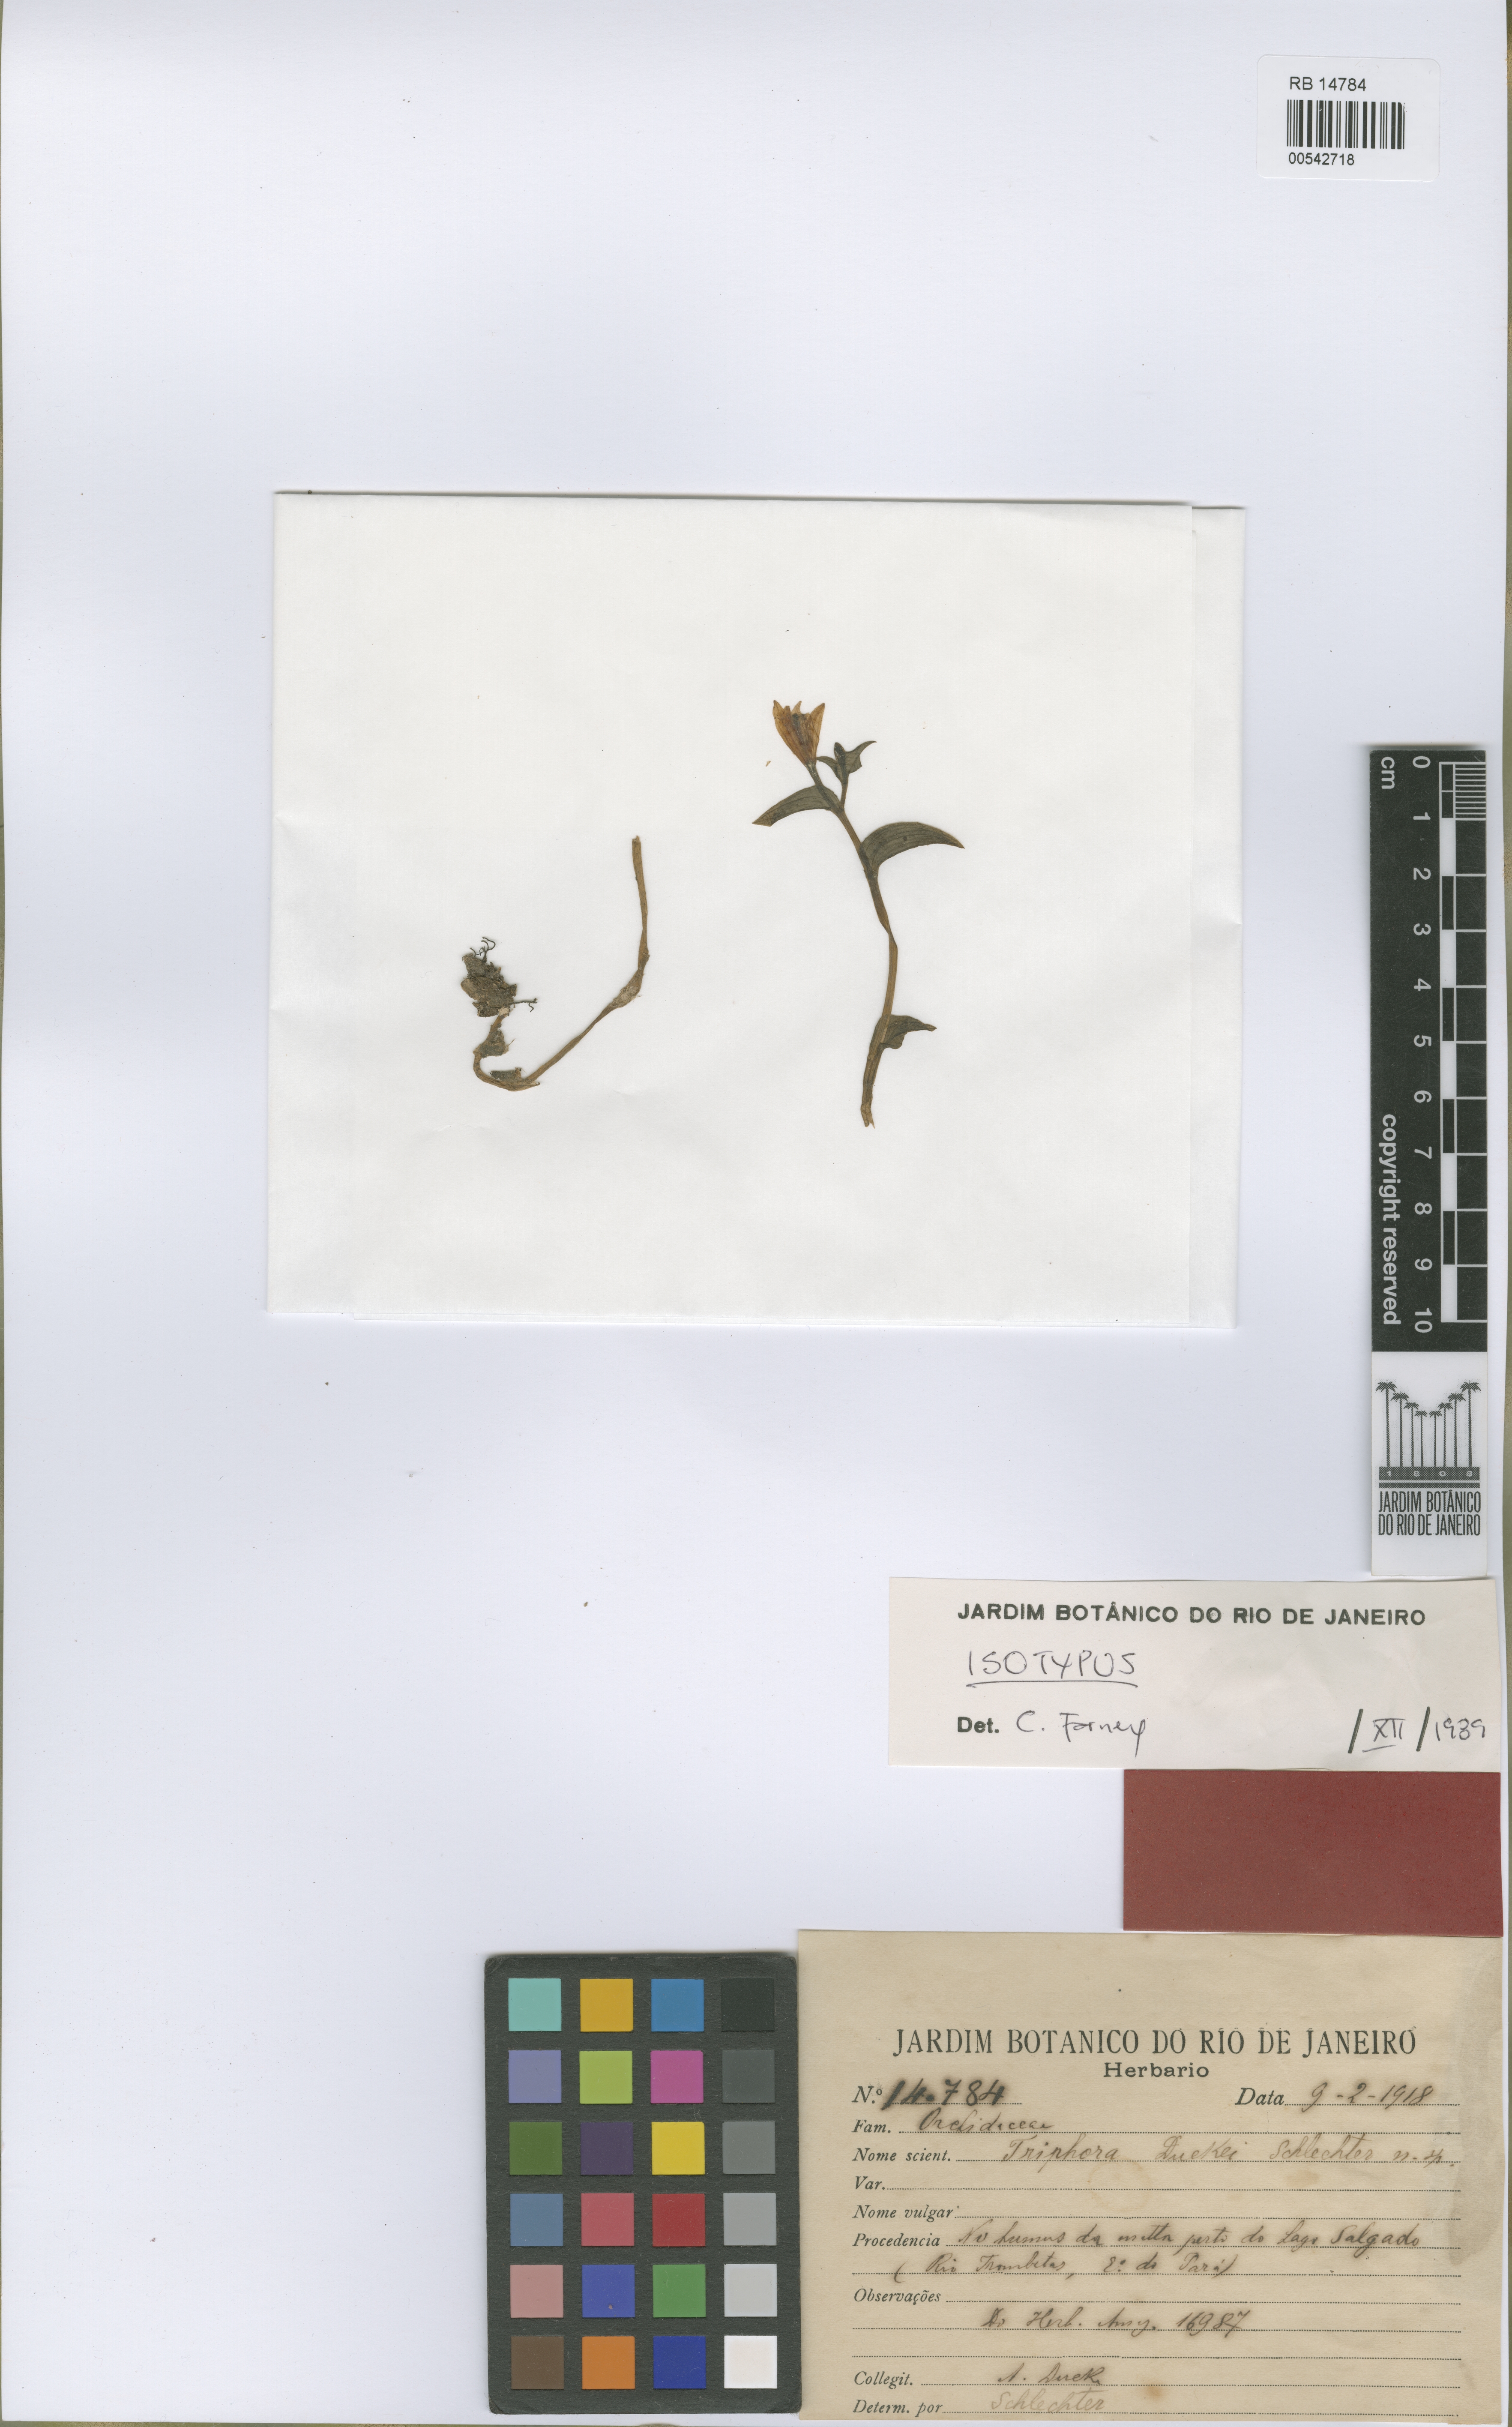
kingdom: Plantae
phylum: Tracheophyta
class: Liliopsida
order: Asparagales
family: Orchidaceae
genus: Triphora
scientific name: Triphora duckei
